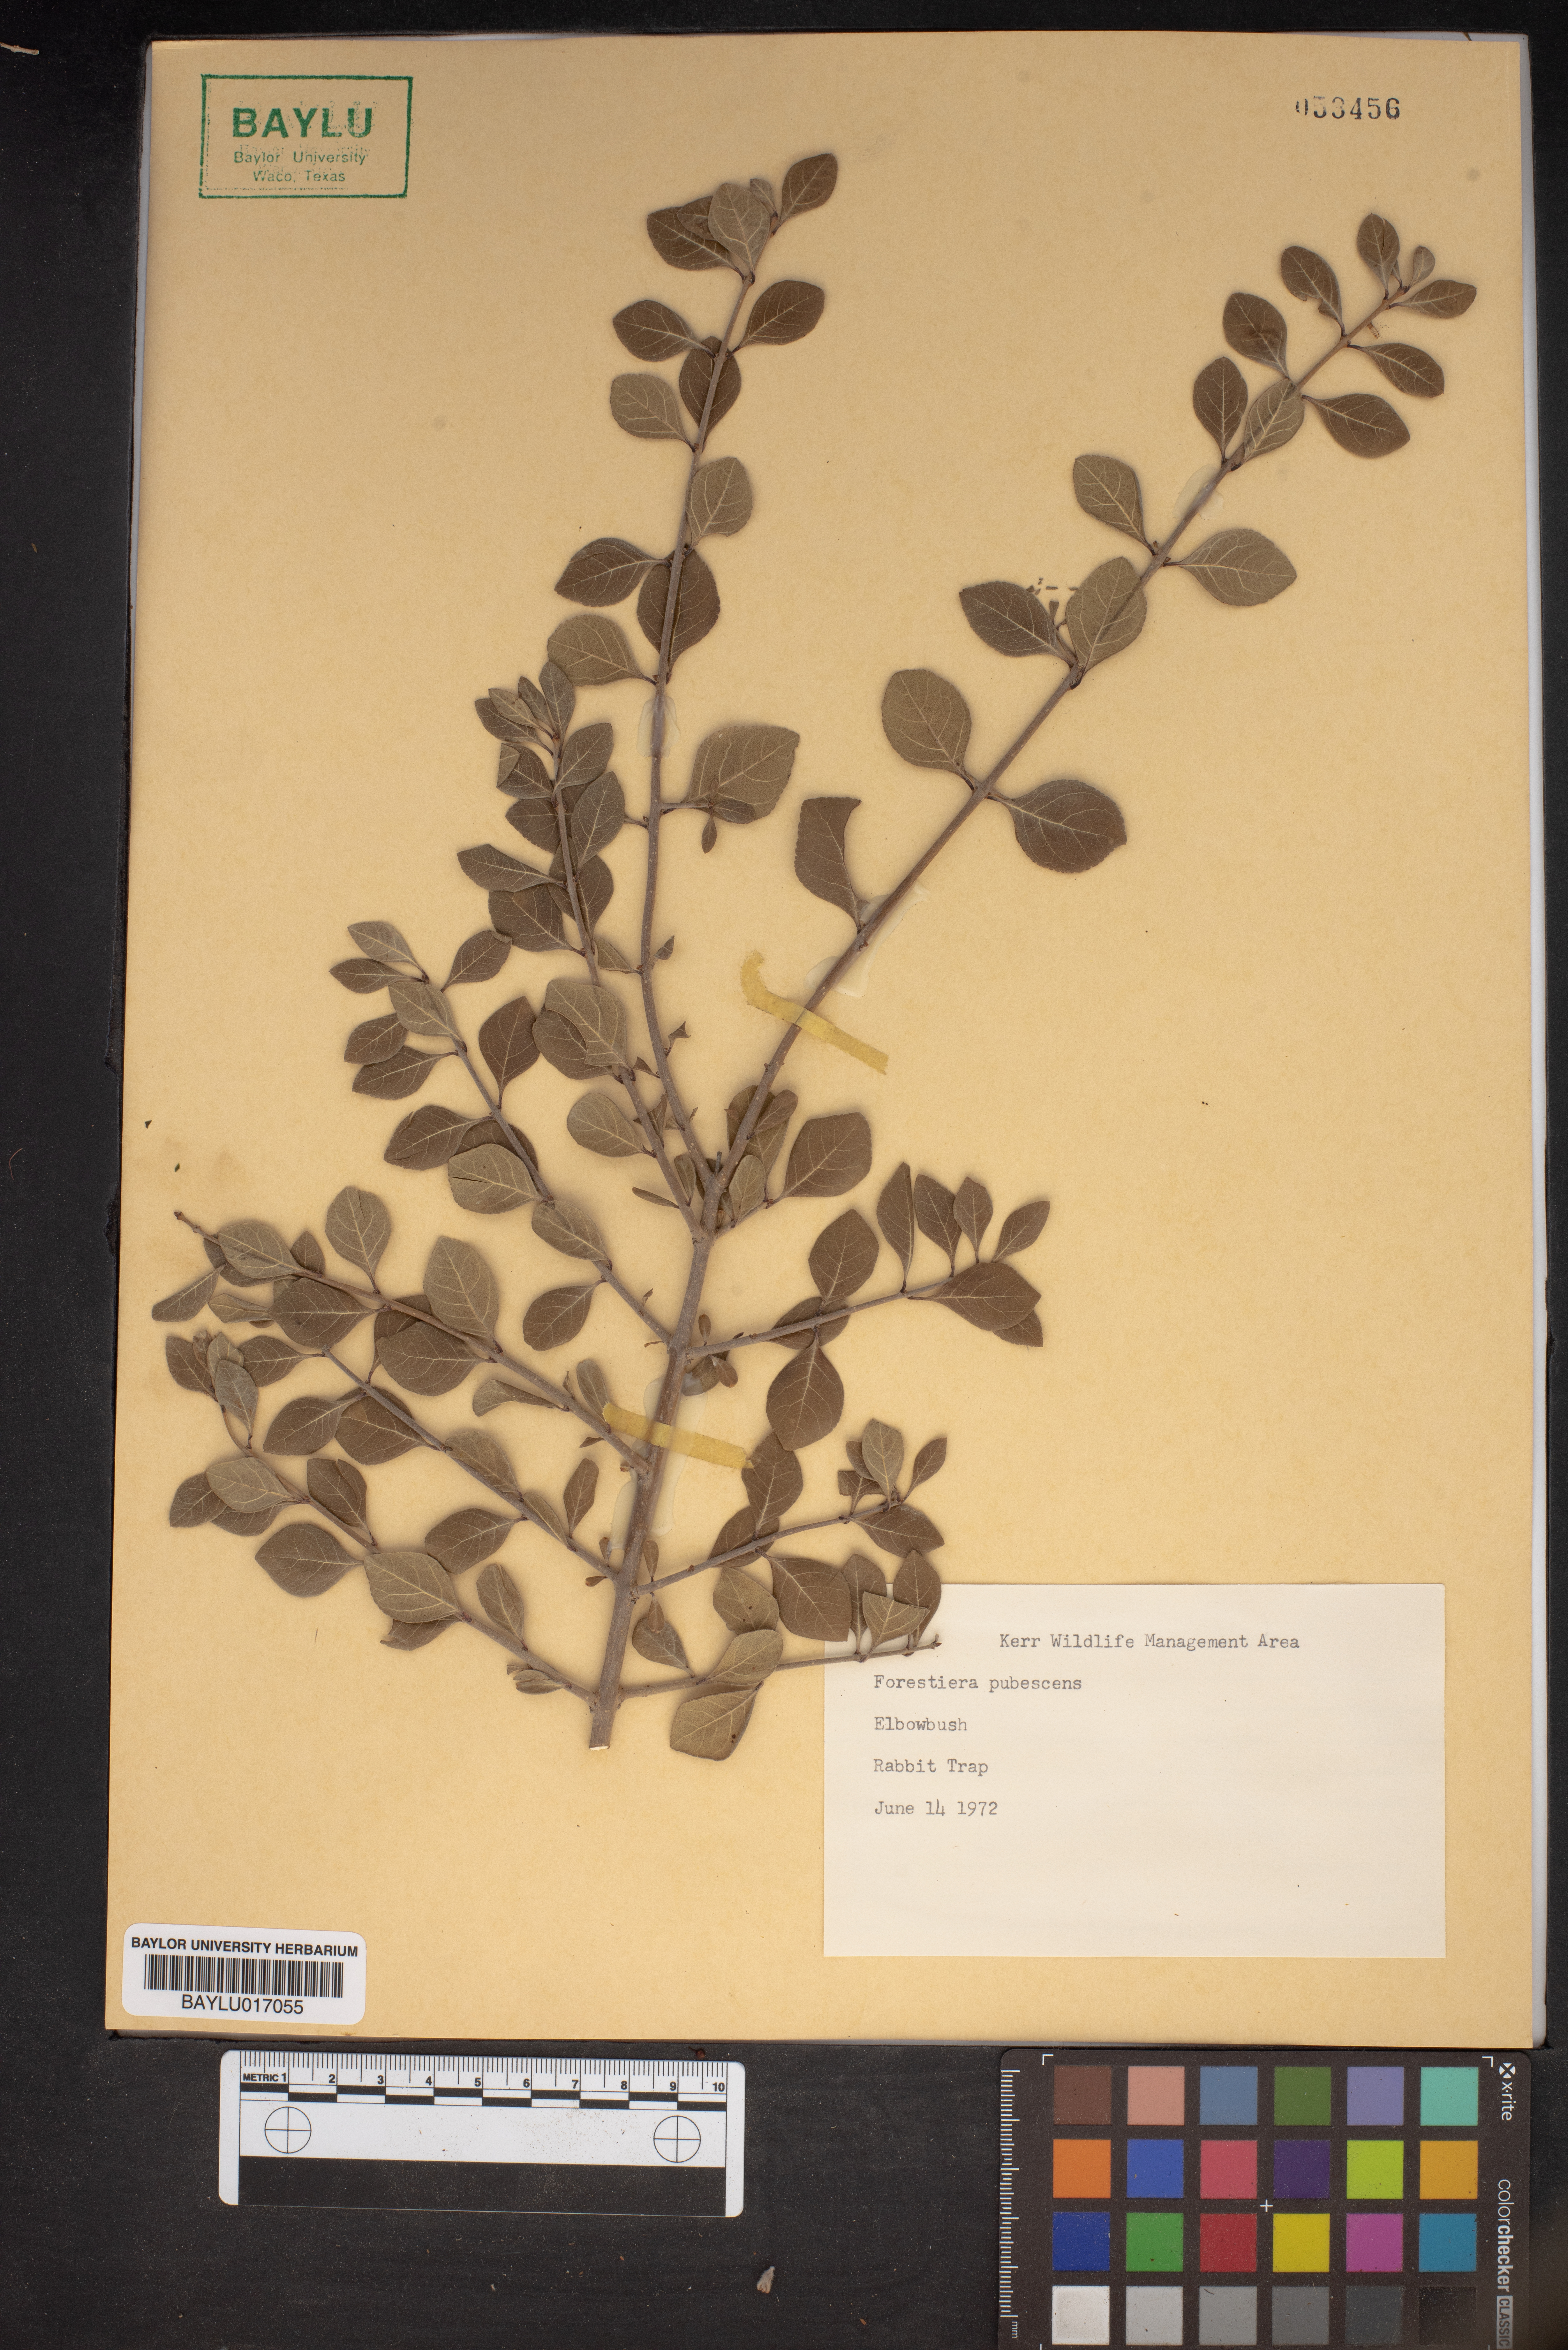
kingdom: Plantae
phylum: Tracheophyta
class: Magnoliopsida
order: Lamiales
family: Oleaceae
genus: Forestiera
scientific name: Forestiera pubescens
